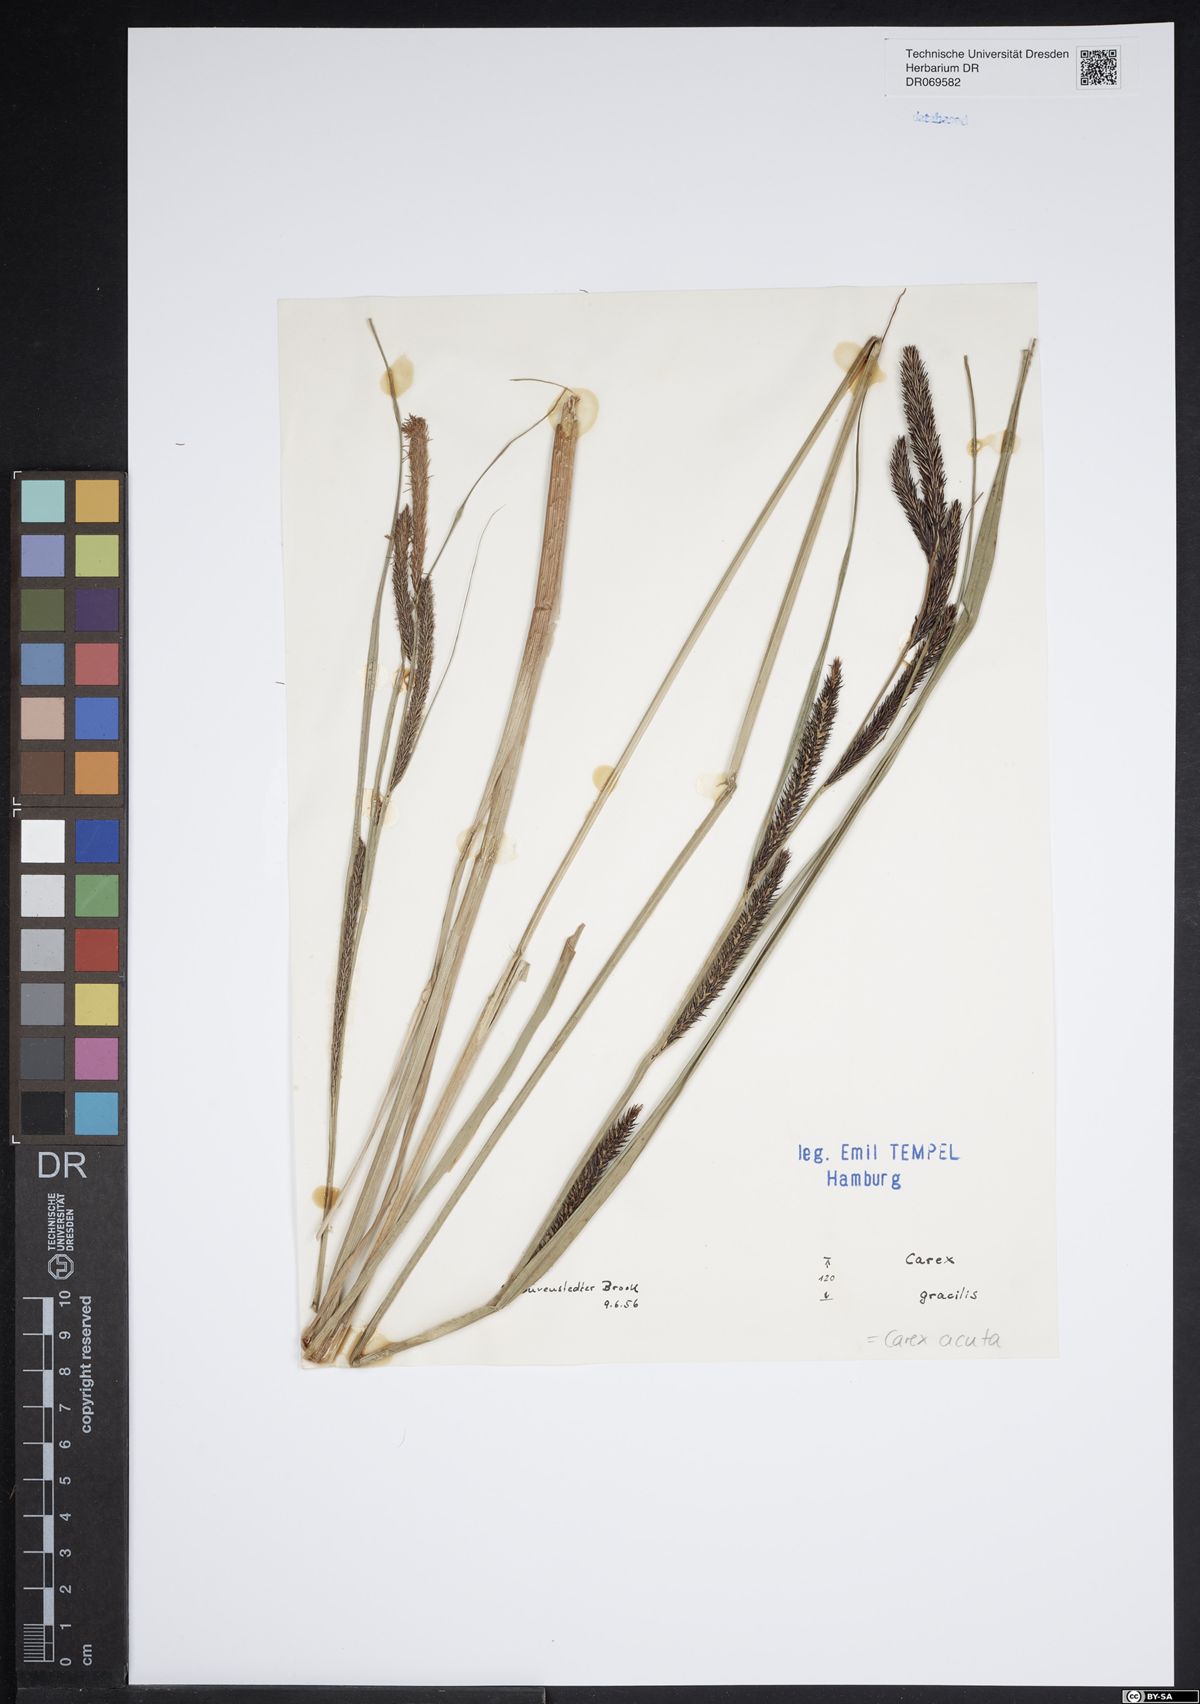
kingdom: Plantae
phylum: Tracheophyta
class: Liliopsida
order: Poales
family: Cyperaceae
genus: Carex
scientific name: Carex acuta
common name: Slender tufted-sedge
